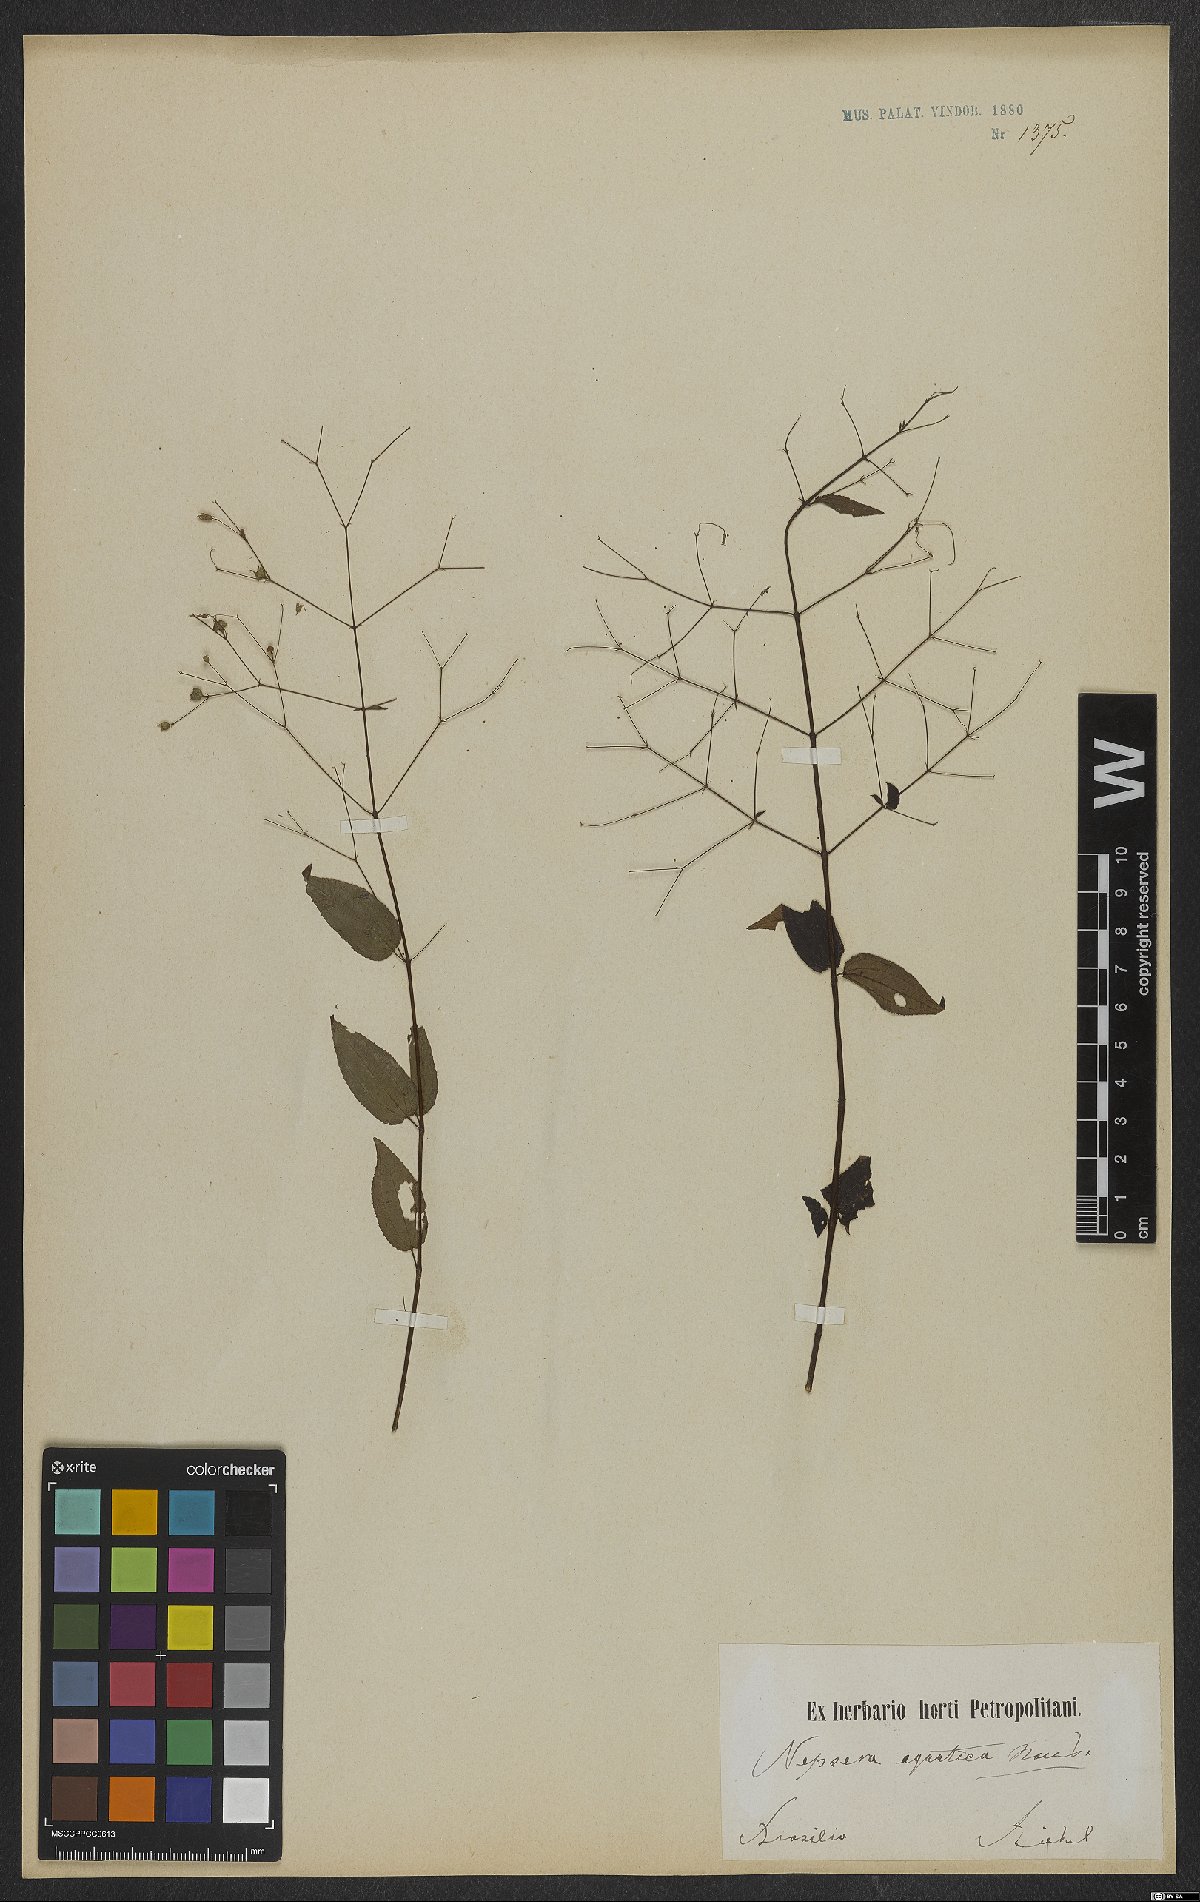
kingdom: Plantae
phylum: Tracheophyta
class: Magnoliopsida
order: Myrtales
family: Melastomataceae
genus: Nepsera
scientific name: Nepsera aquatica
